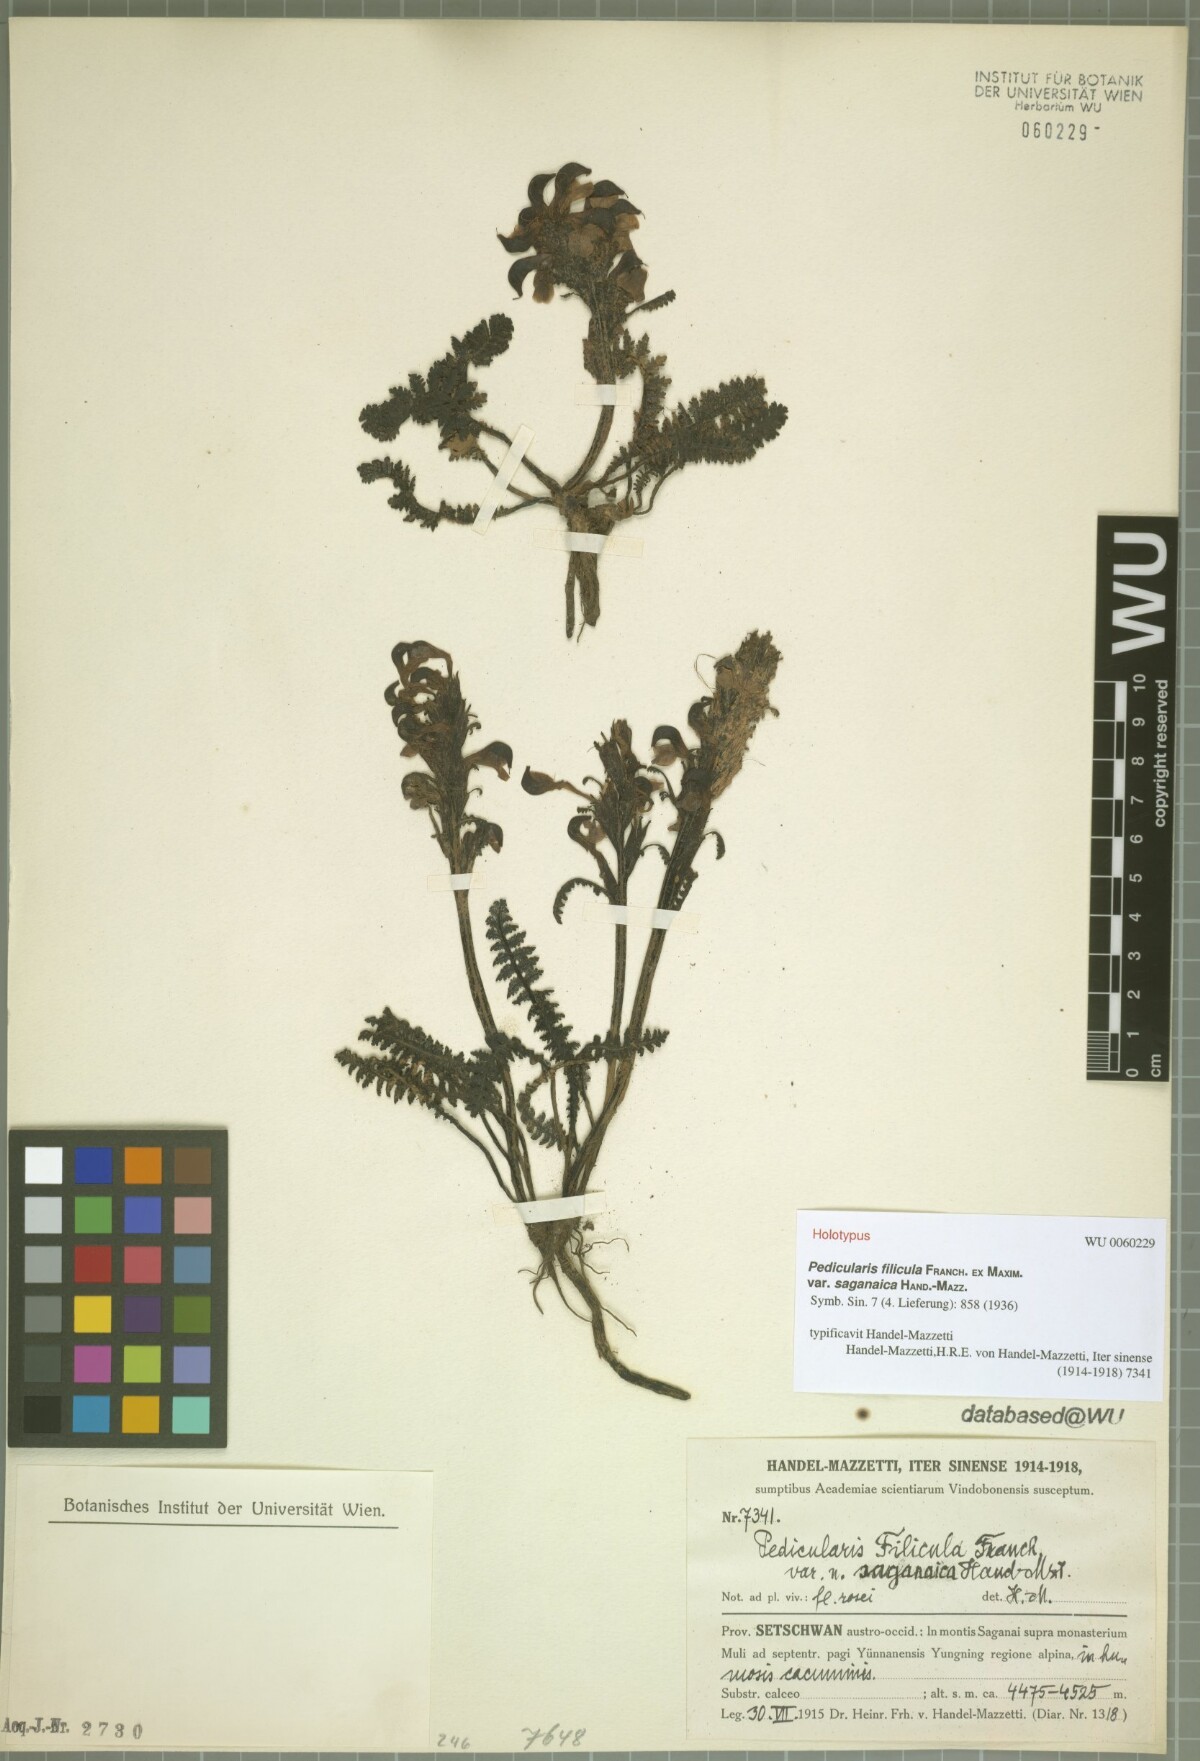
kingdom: Plantae
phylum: Tracheophyta
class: Magnoliopsida
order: Lamiales
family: Orobanchaceae
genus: Pedicularis
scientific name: Pedicularis filicula
